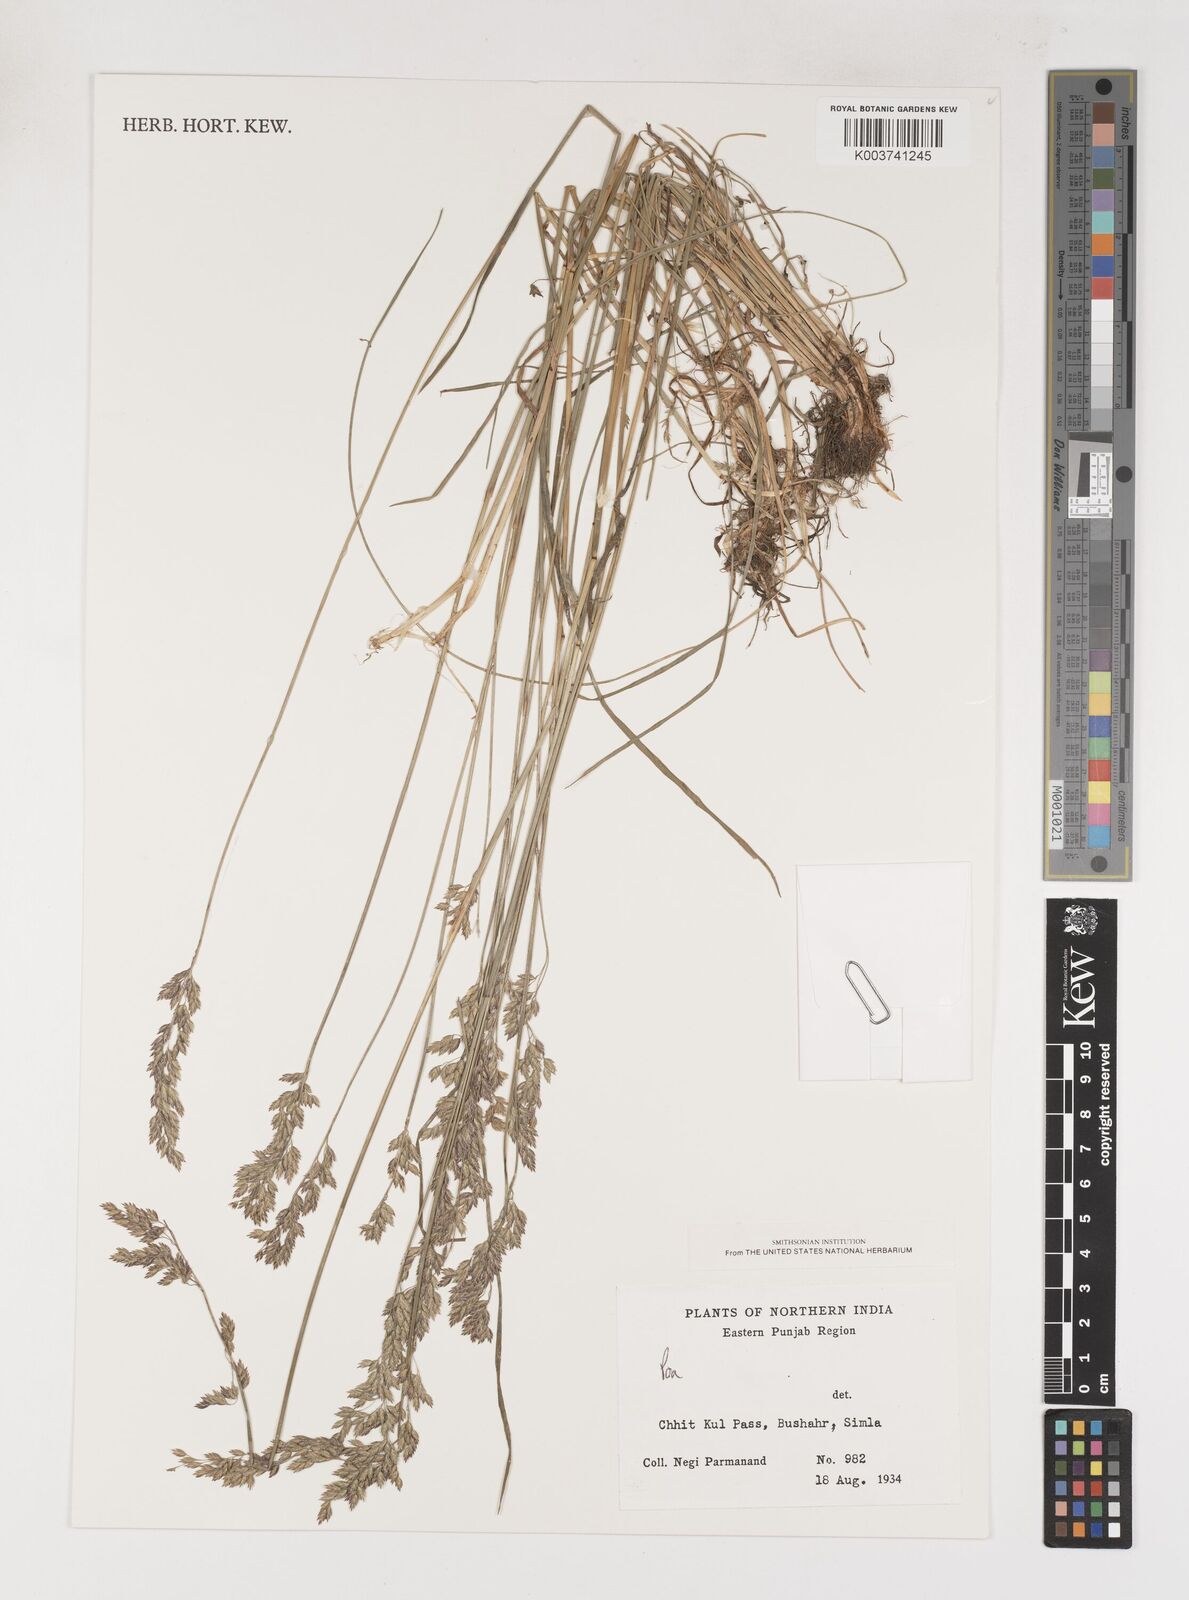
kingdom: Plantae
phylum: Tracheophyta
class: Liliopsida
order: Poales
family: Poaceae
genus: Poa
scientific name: Poa
